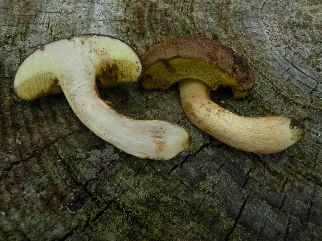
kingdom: Fungi
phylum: Basidiomycota
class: Agaricomycetes
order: Boletales
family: Boletaceae
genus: Xerocomus
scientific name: Xerocomus ferrugineus
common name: vaskeskinds-rørhat
